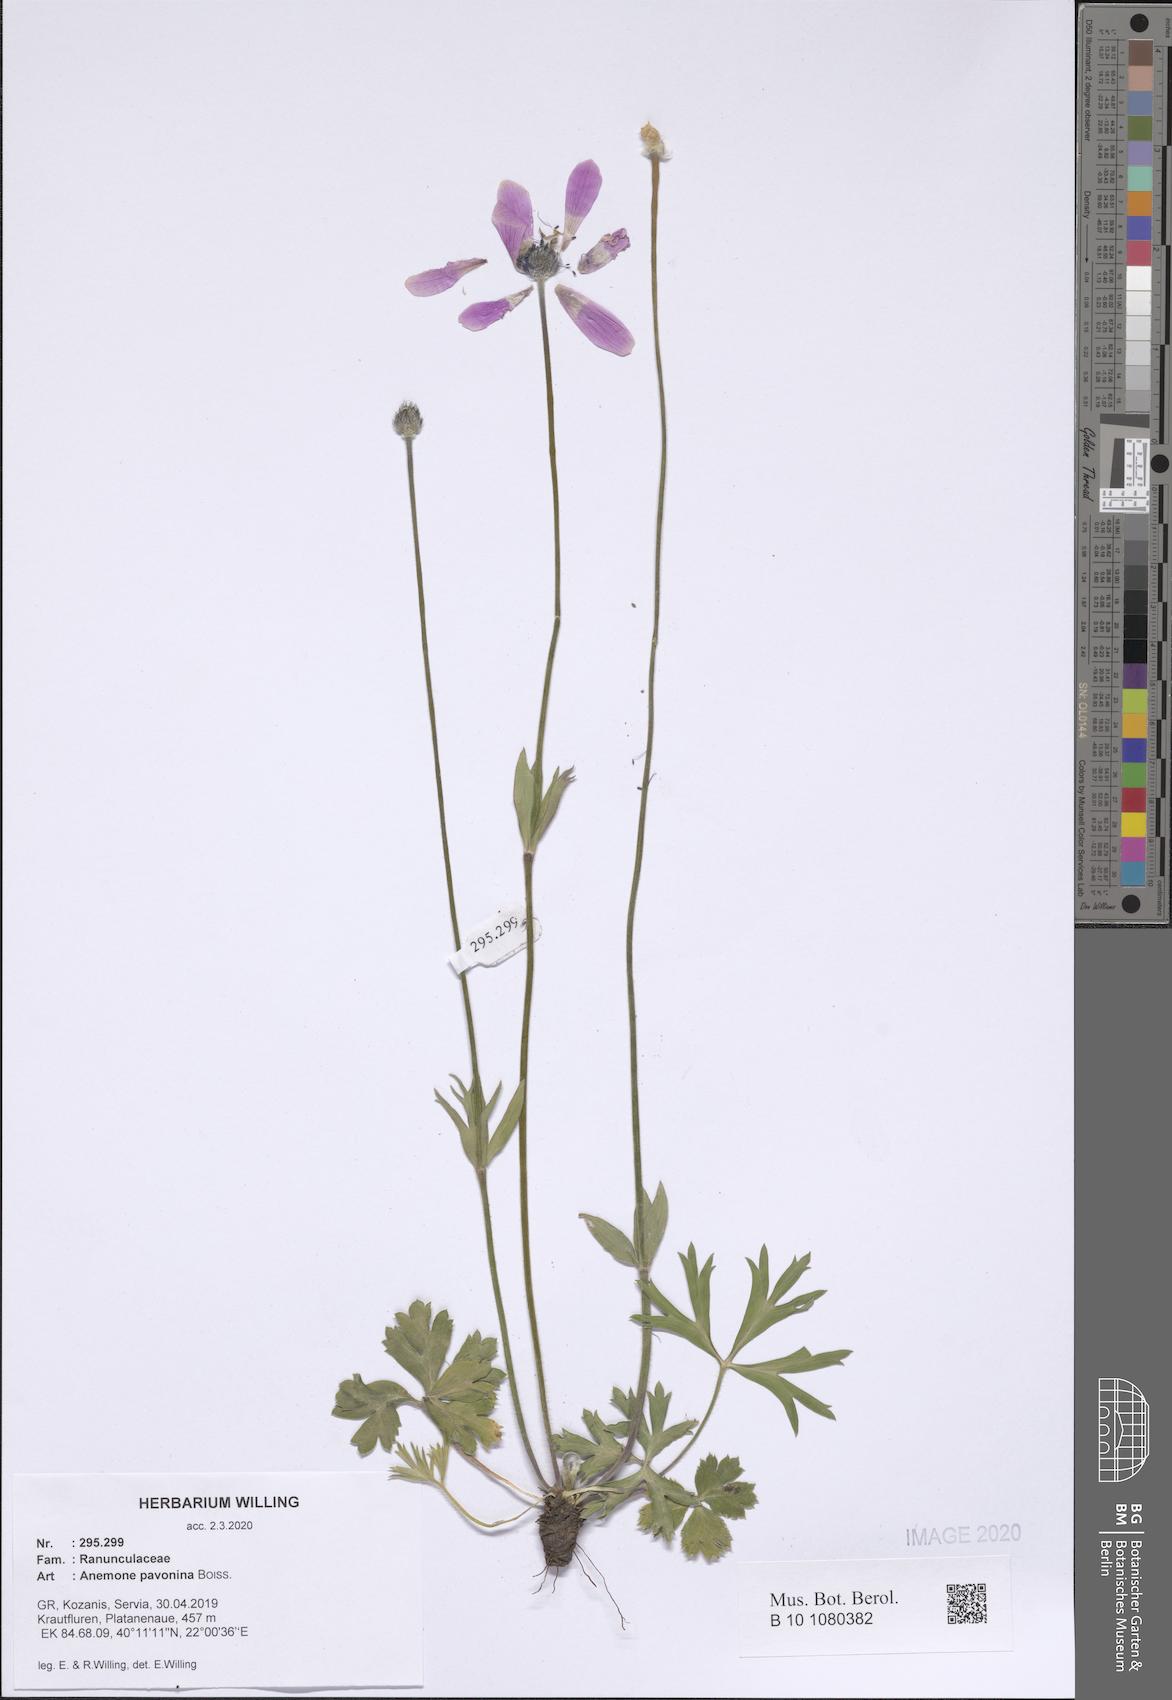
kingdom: Plantae
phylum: Tracheophyta
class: Magnoliopsida
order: Ranunculales
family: Ranunculaceae
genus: Anemone
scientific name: Anemone pavonina
